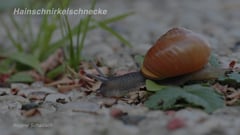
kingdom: Animalia
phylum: Mollusca
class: Gastropoda
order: Stylommatophora
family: Helicidae
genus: Cepaea
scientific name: Cepaea nemoralis
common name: Grovesnail
